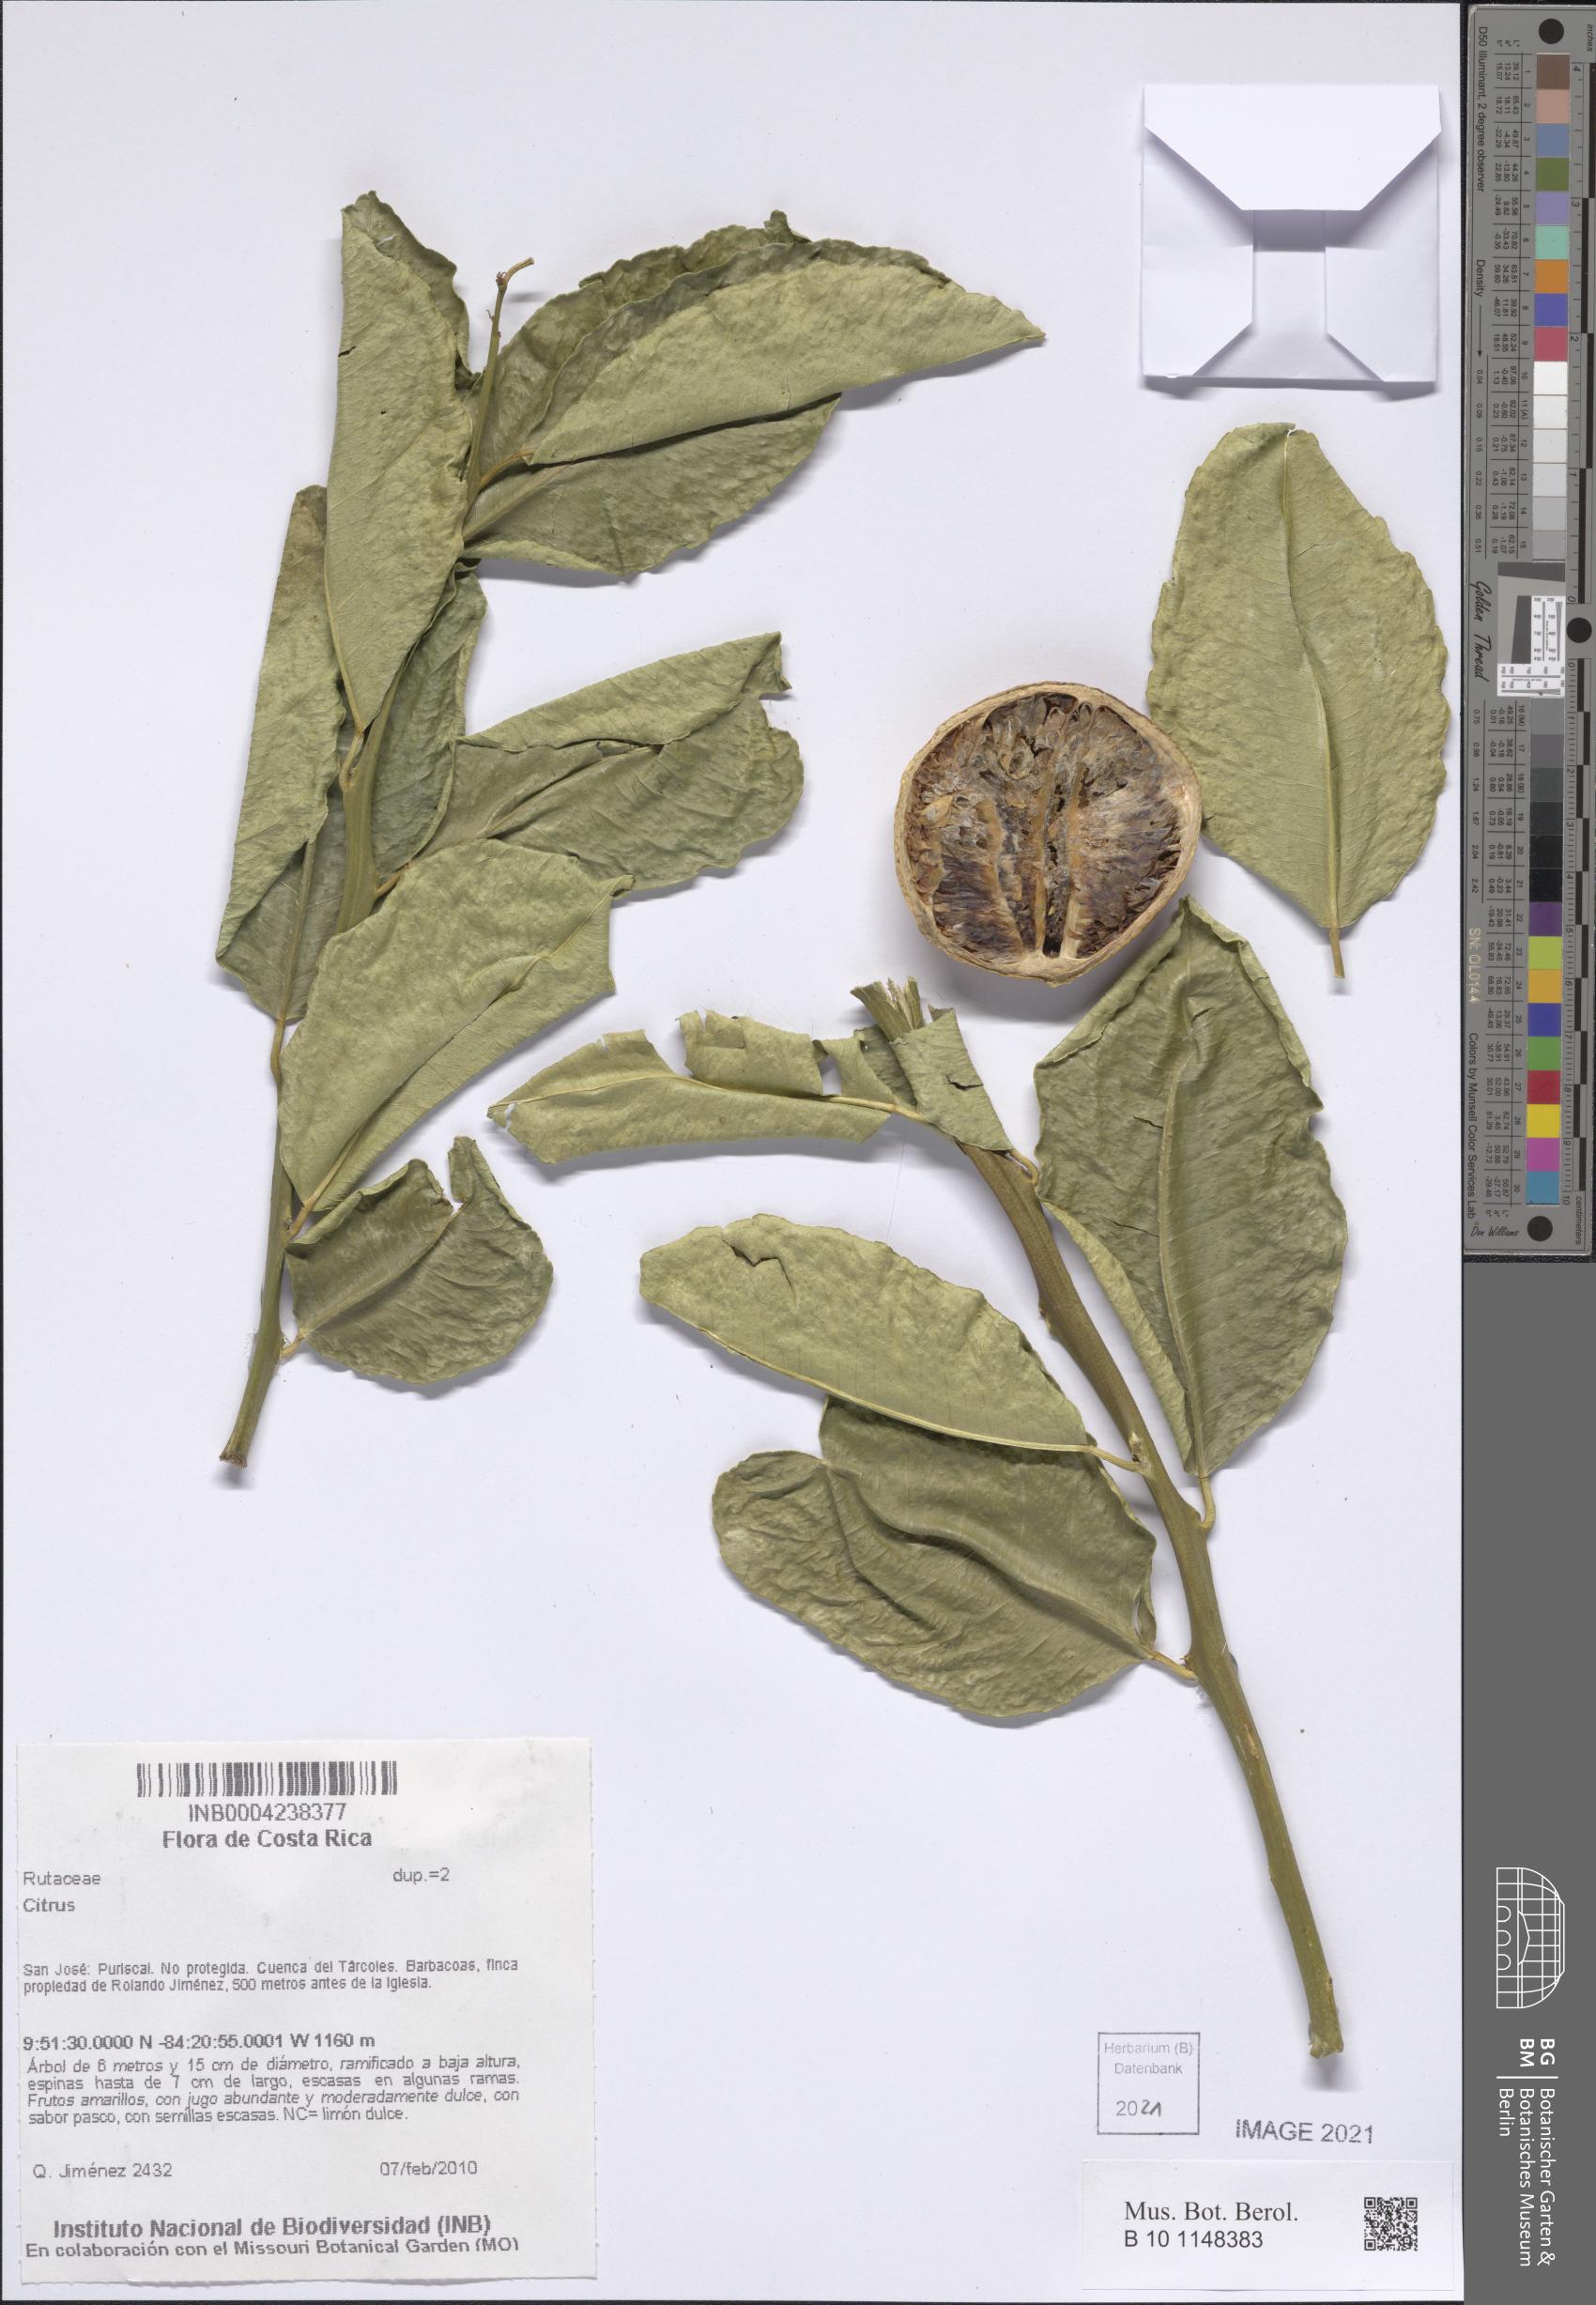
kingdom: Plantae
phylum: Tracheophyta
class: Magnoliopsida
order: Sapindales
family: Rutaceae
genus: Citrus
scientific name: Citrus
